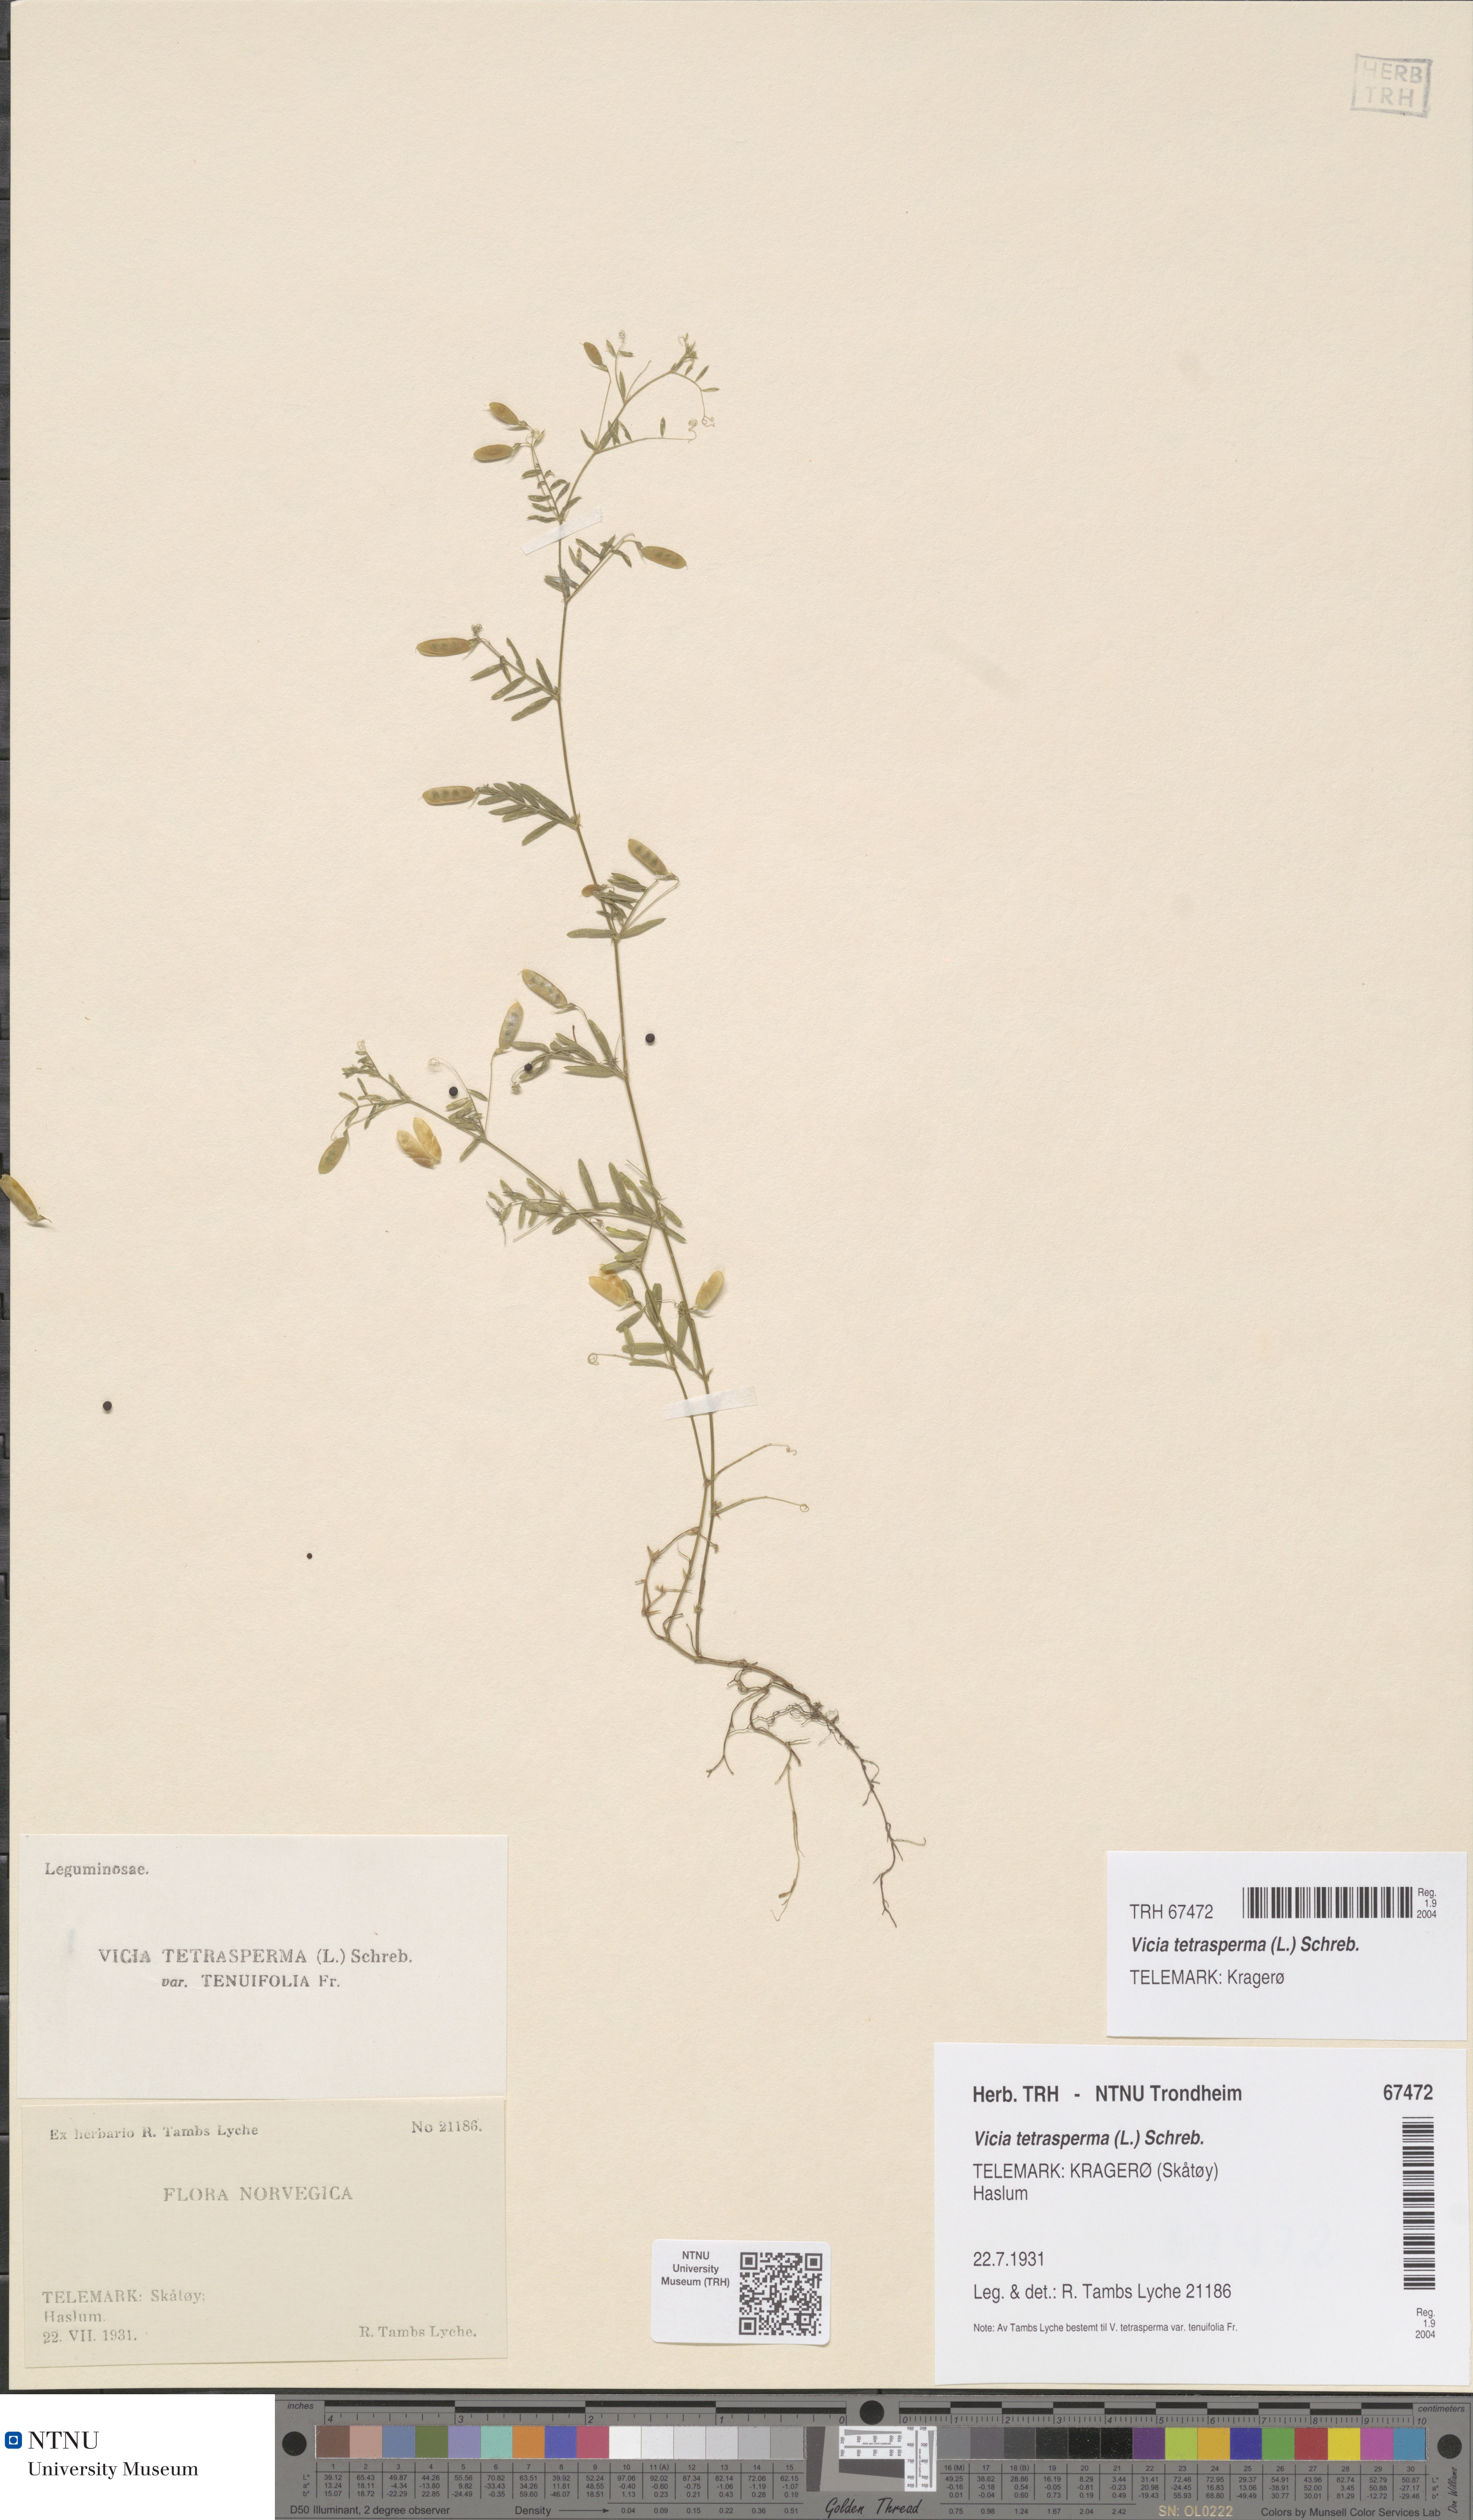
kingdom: Plantae
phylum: Tracheophyta
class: Magnoliopsida
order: Fabales
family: Fabaceae
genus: Vicia
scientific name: Vicia tetrasperma
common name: Smooth tare
